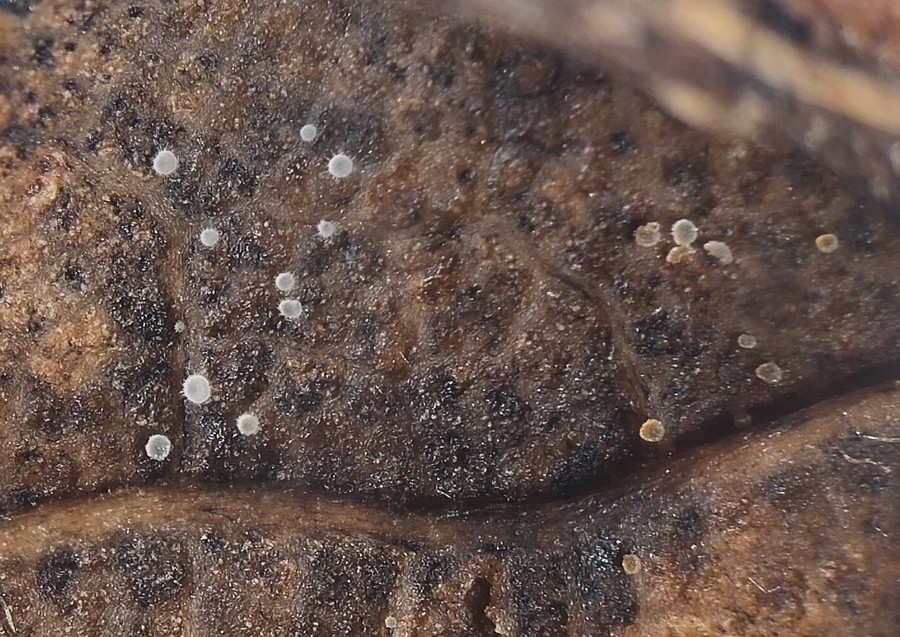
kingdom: Fungi
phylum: Ascomycota
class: Leotiomycetes
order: Helotiales
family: Pezizellaceae
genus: Calycellina
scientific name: Calycellina lachnobrachya
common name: firesporet hårskive
